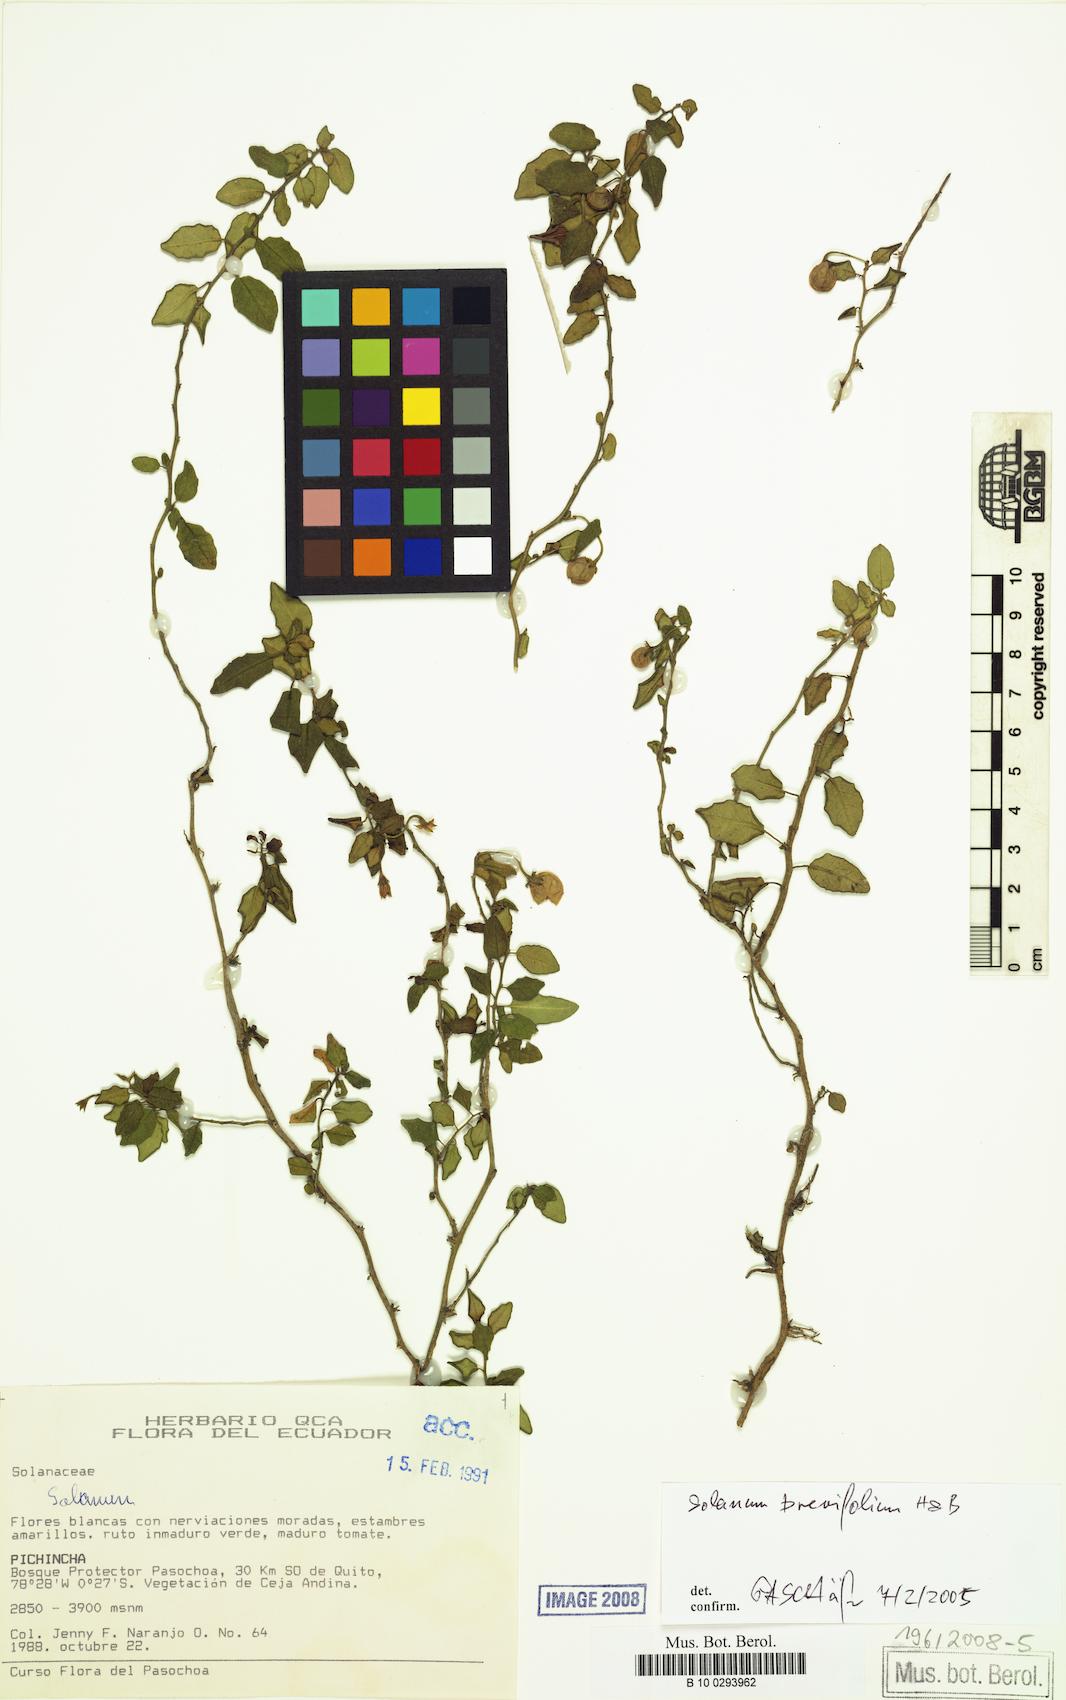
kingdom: Plantae
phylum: Tracheophyta
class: Magnoliopsida
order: Solanales
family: Solanaceae
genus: Solanum
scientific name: Solanum brevifolium
